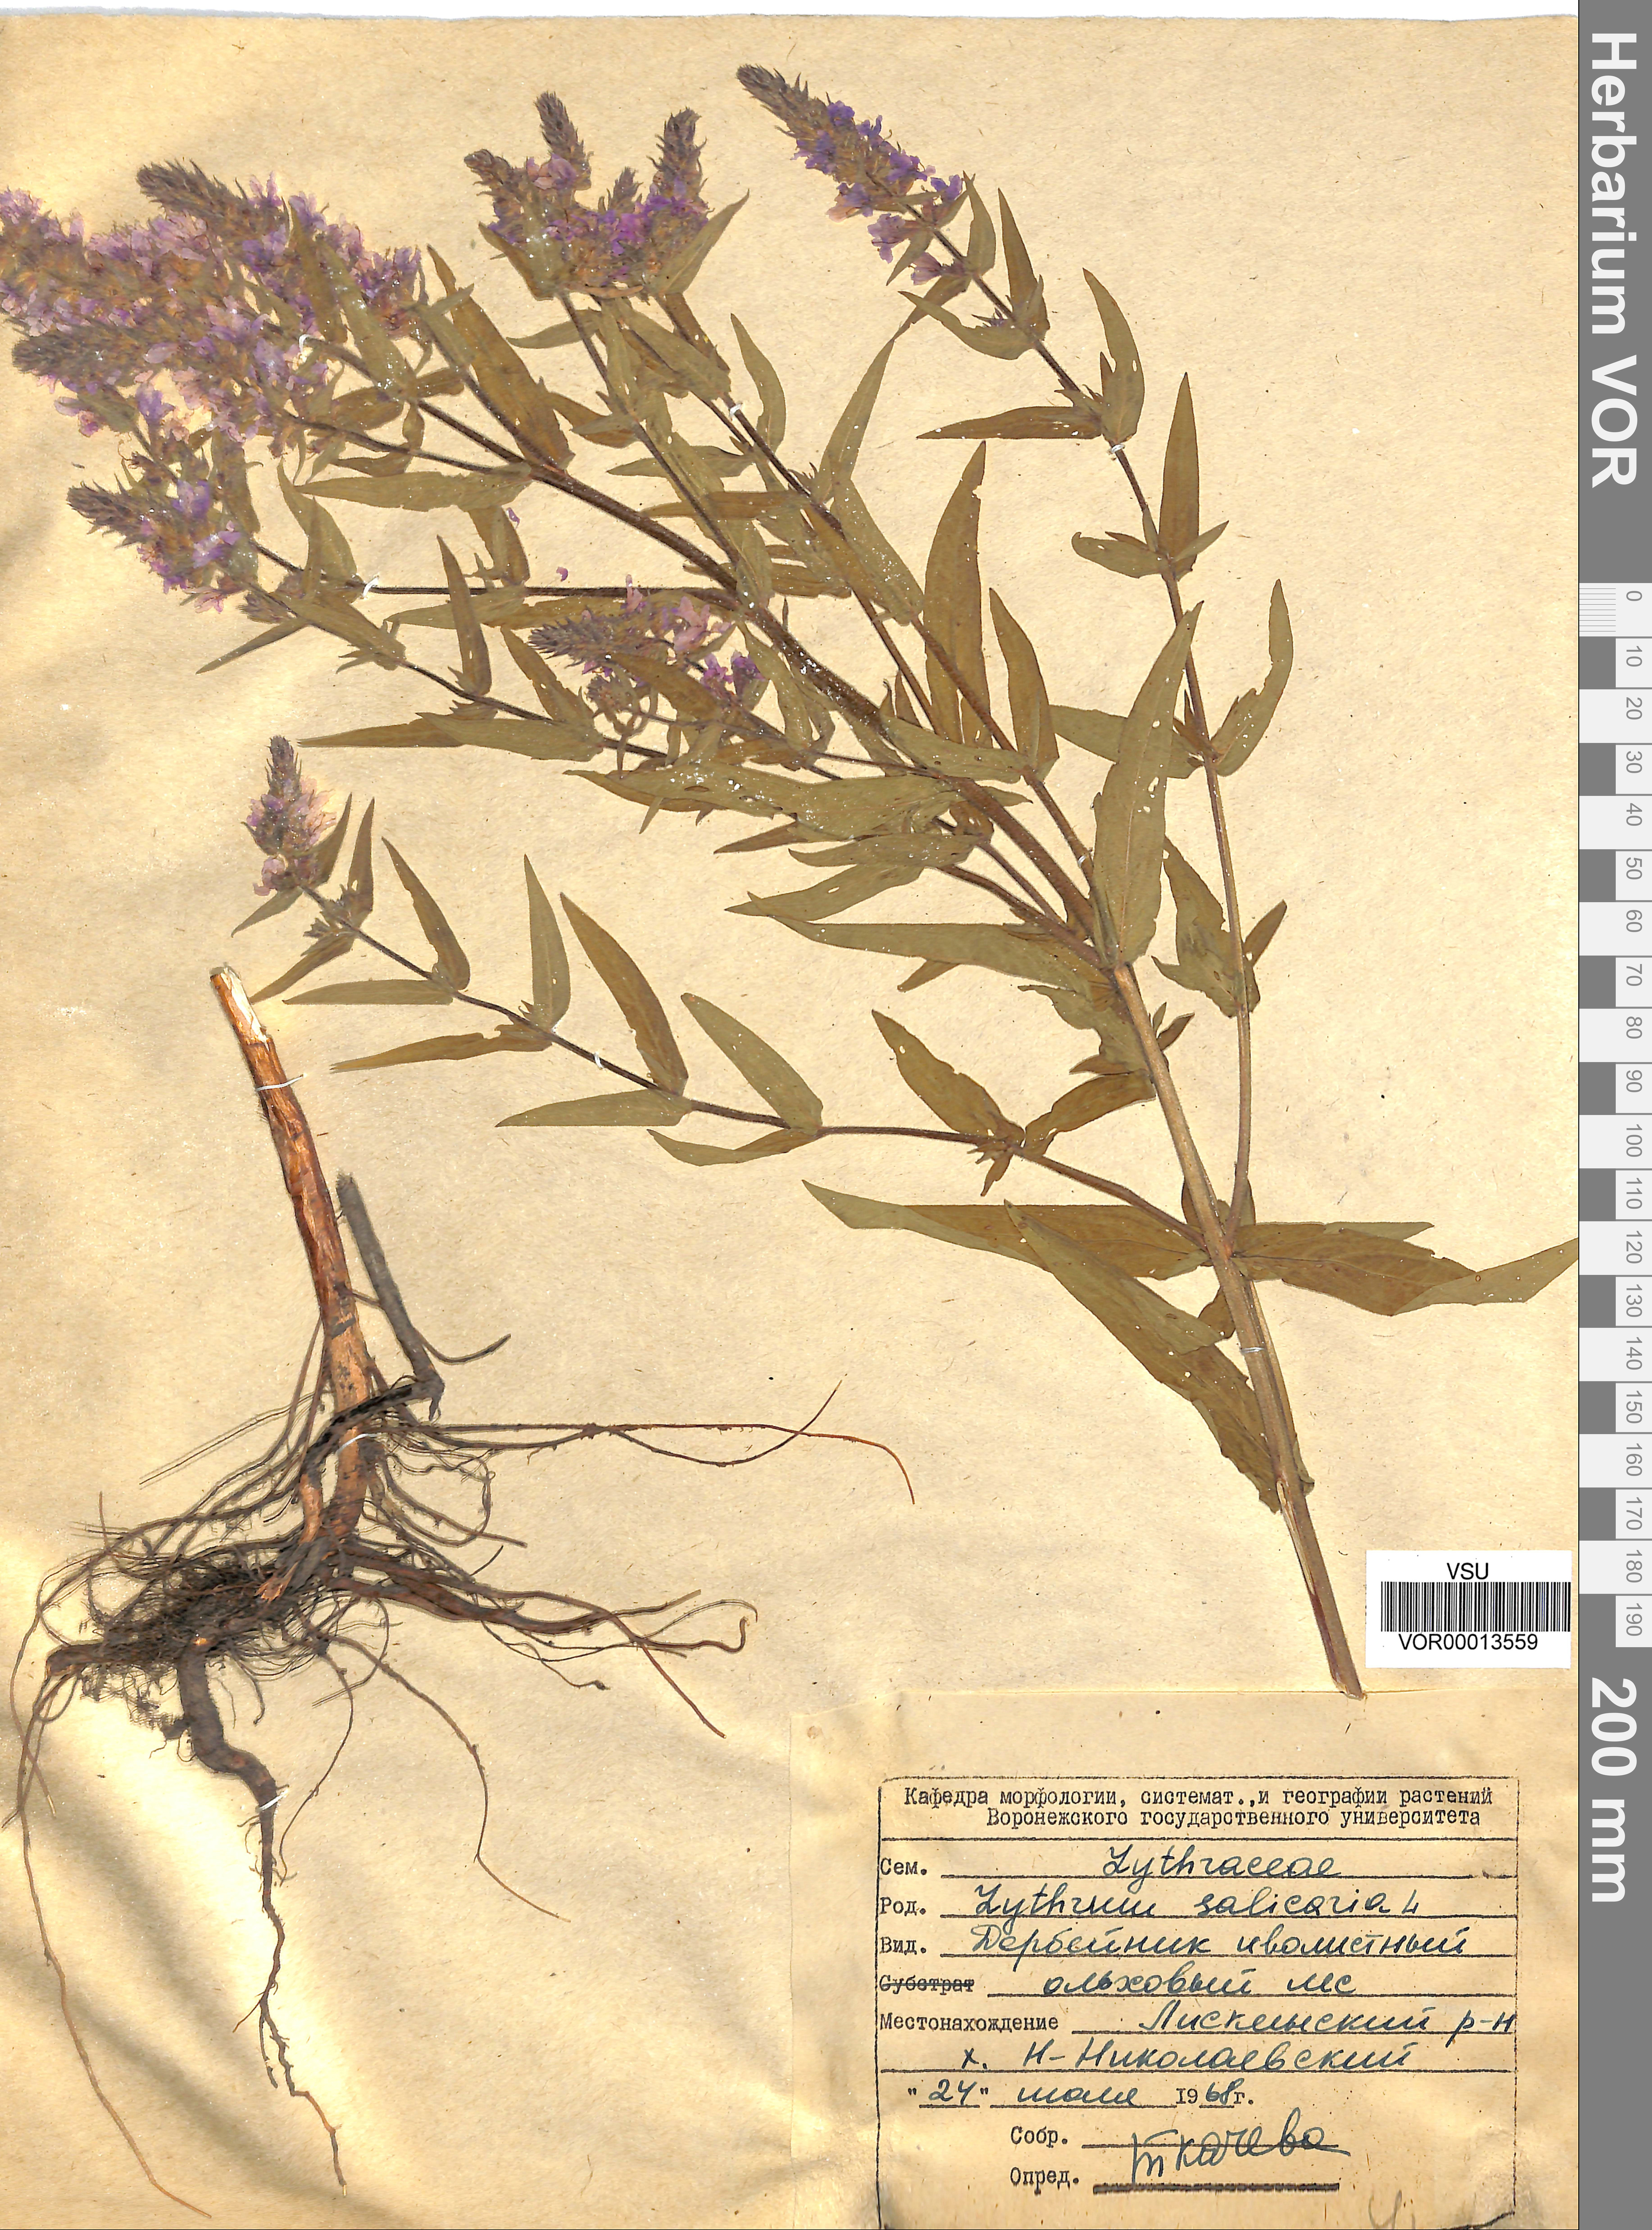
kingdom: Plantae
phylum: Tracheophyta
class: Magnoliopsida
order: Myrtales
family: Lythraceae
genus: Lythrum
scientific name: Lythrum salicaria
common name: Purple loosestrife
